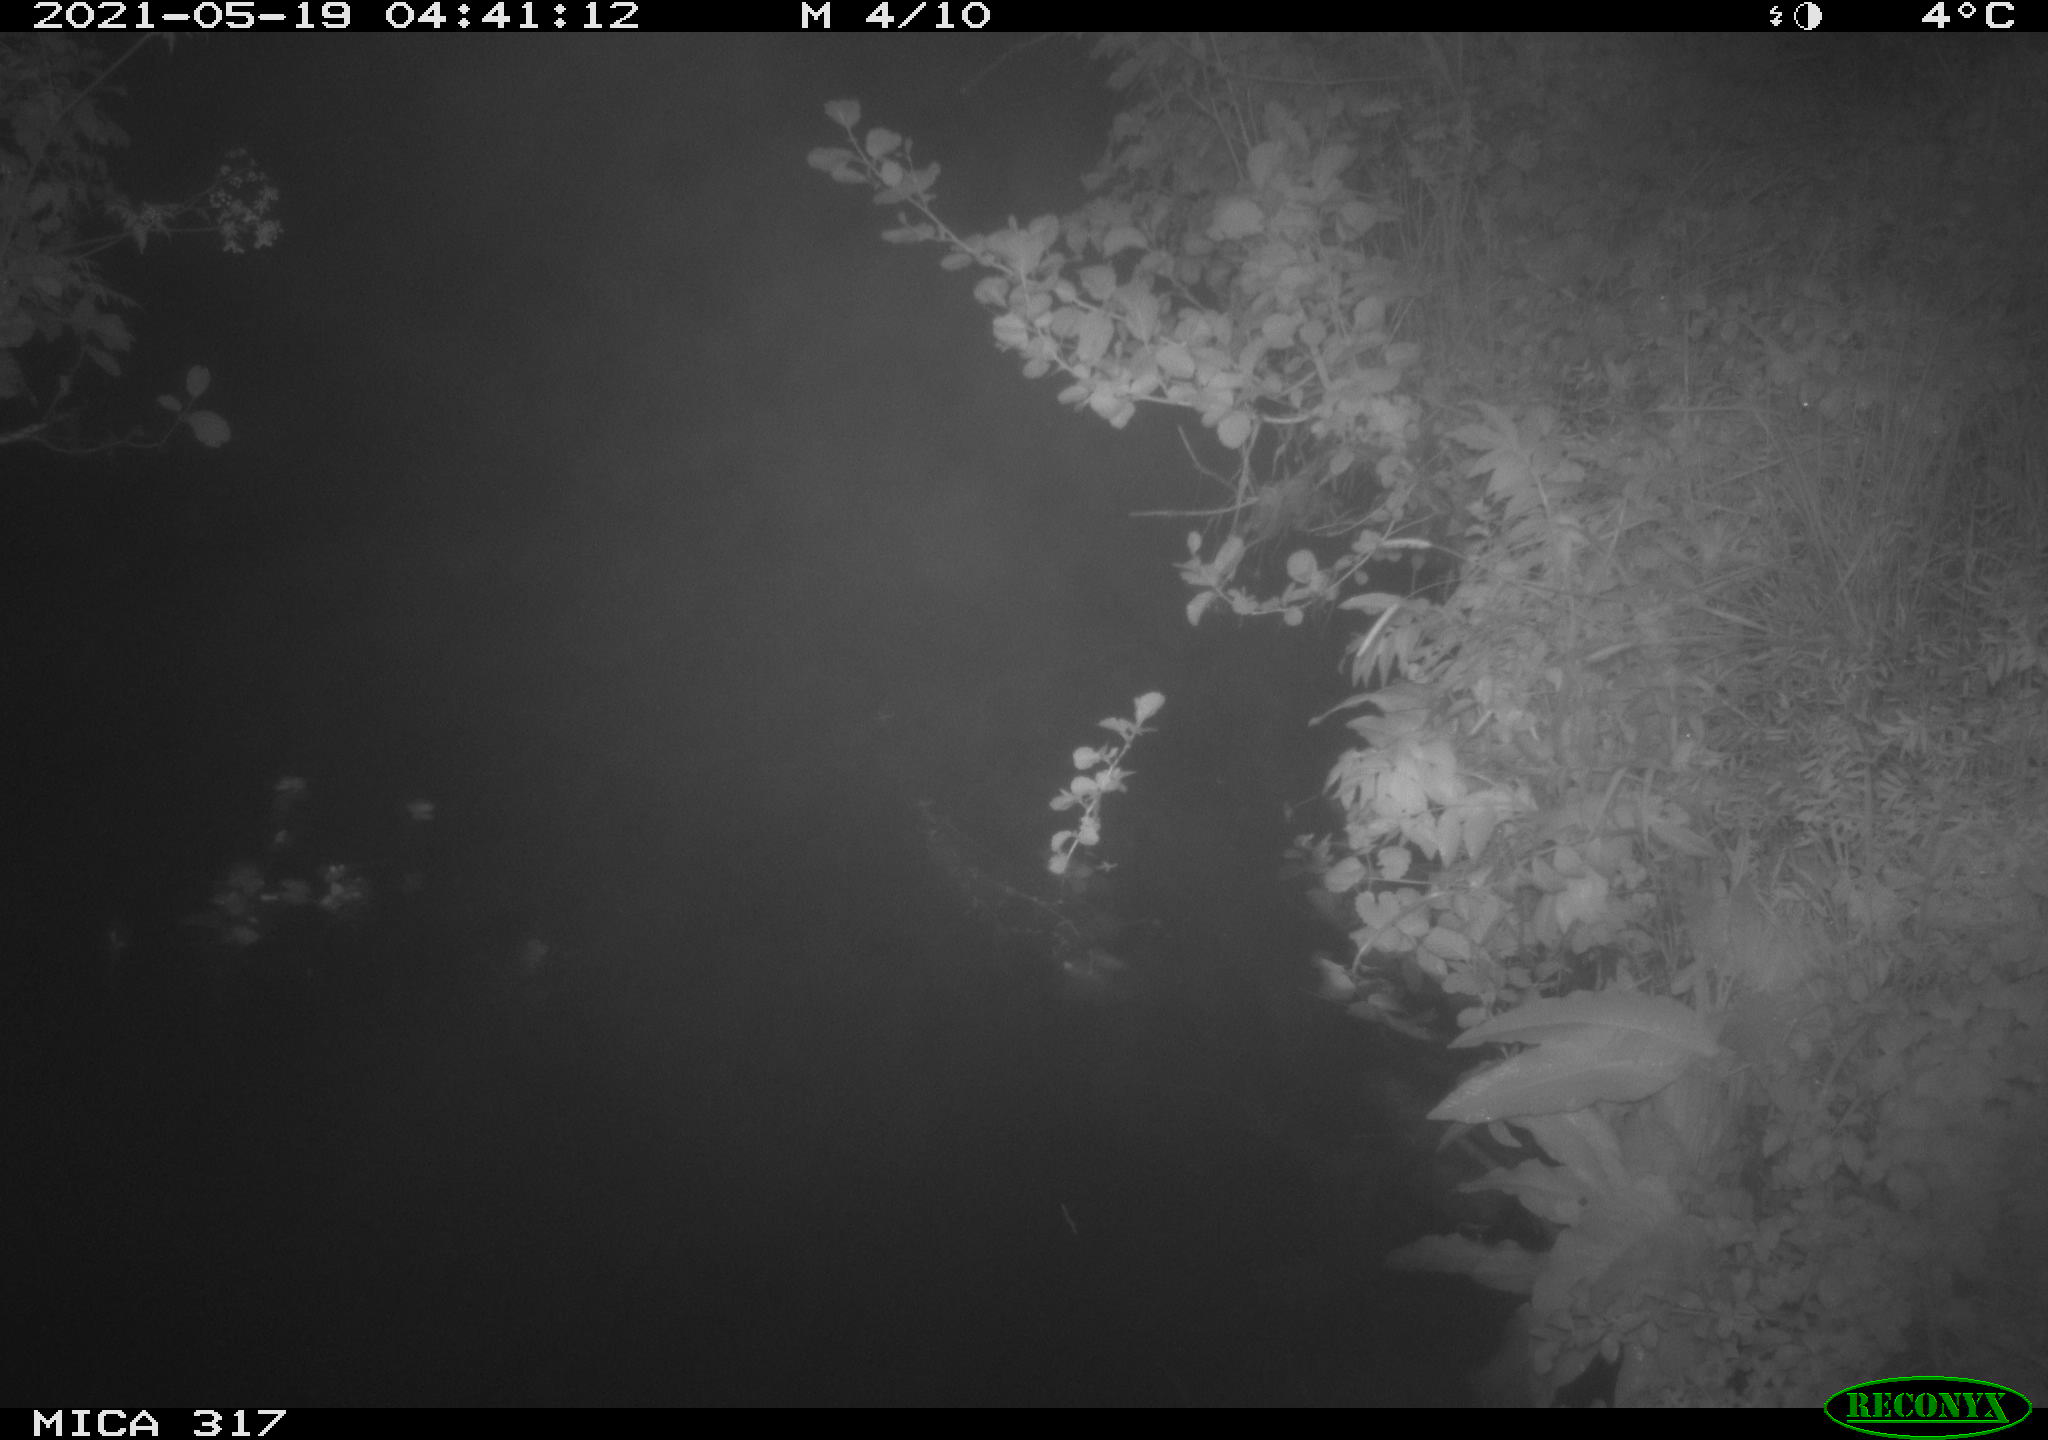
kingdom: Animalia
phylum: Chordata
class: Aves
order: Anseriformes
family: Anatidae
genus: Anas
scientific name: Anas
